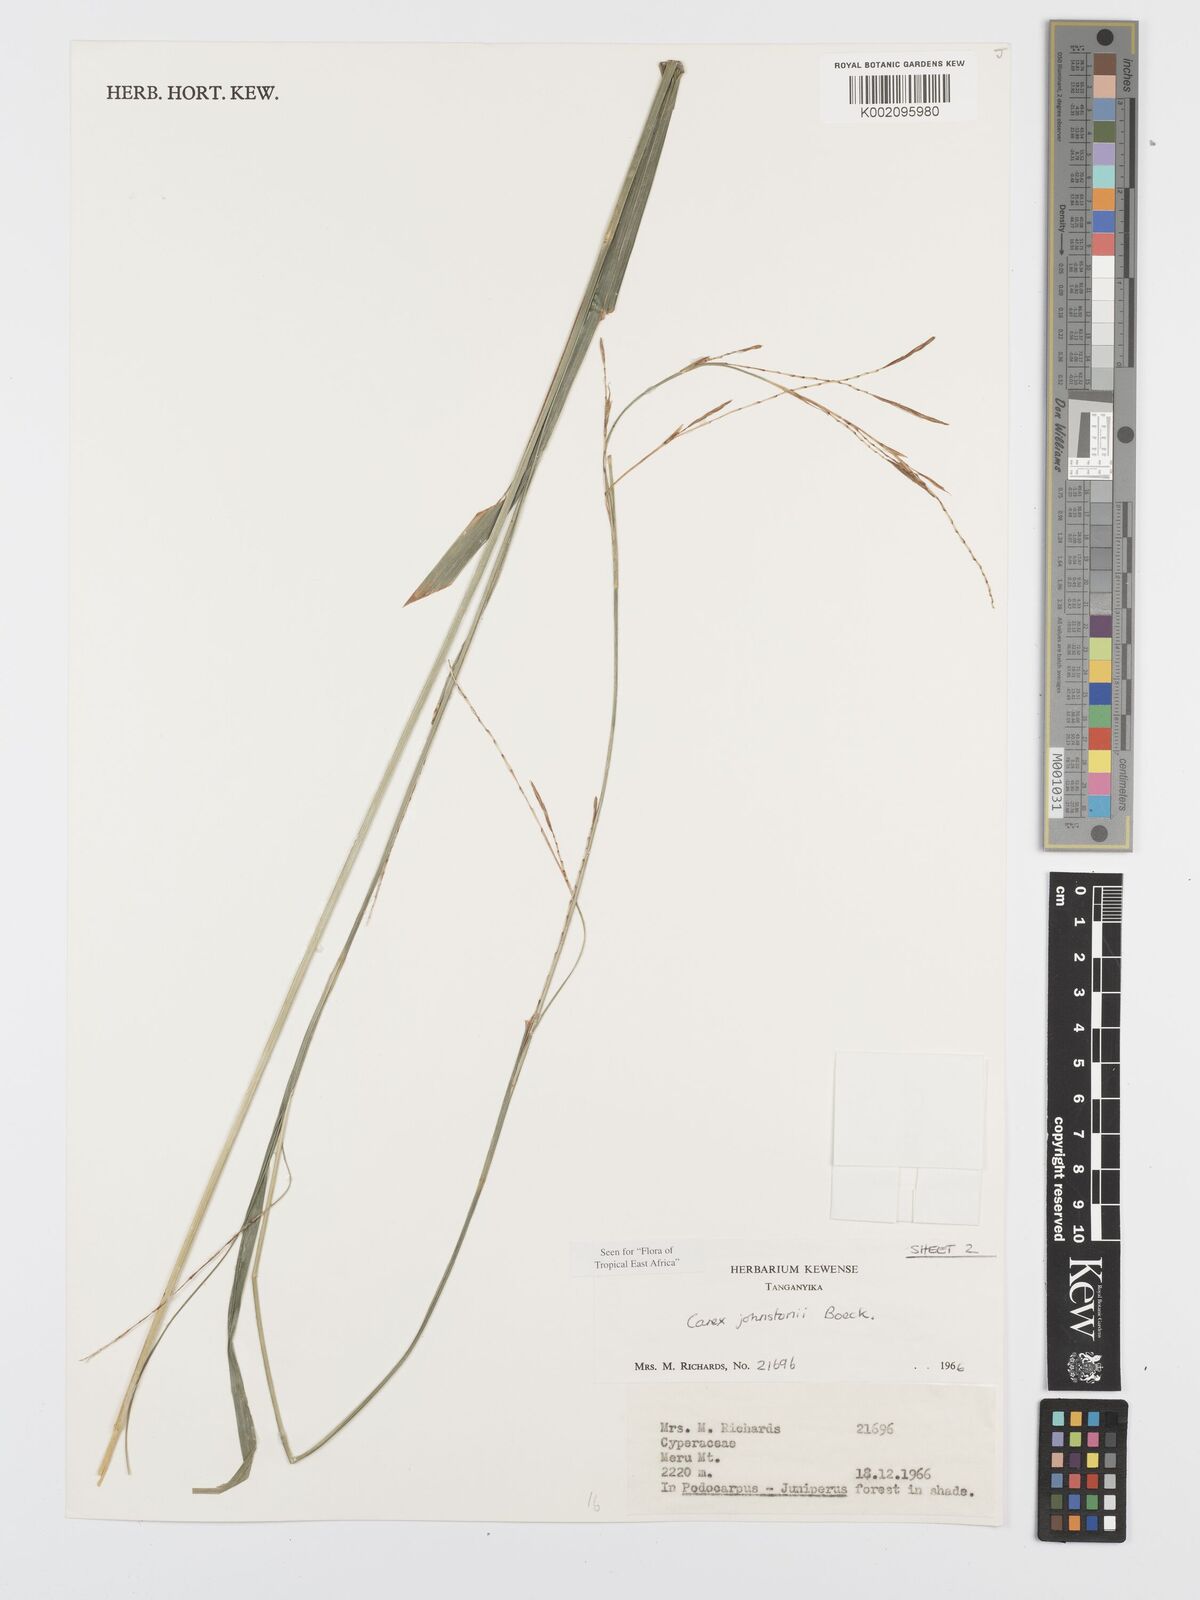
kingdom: Plantae
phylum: Tracheophyta
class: Liliopsida
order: Poales
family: Cyperaceae
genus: Carex
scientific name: Carex johnstonii
